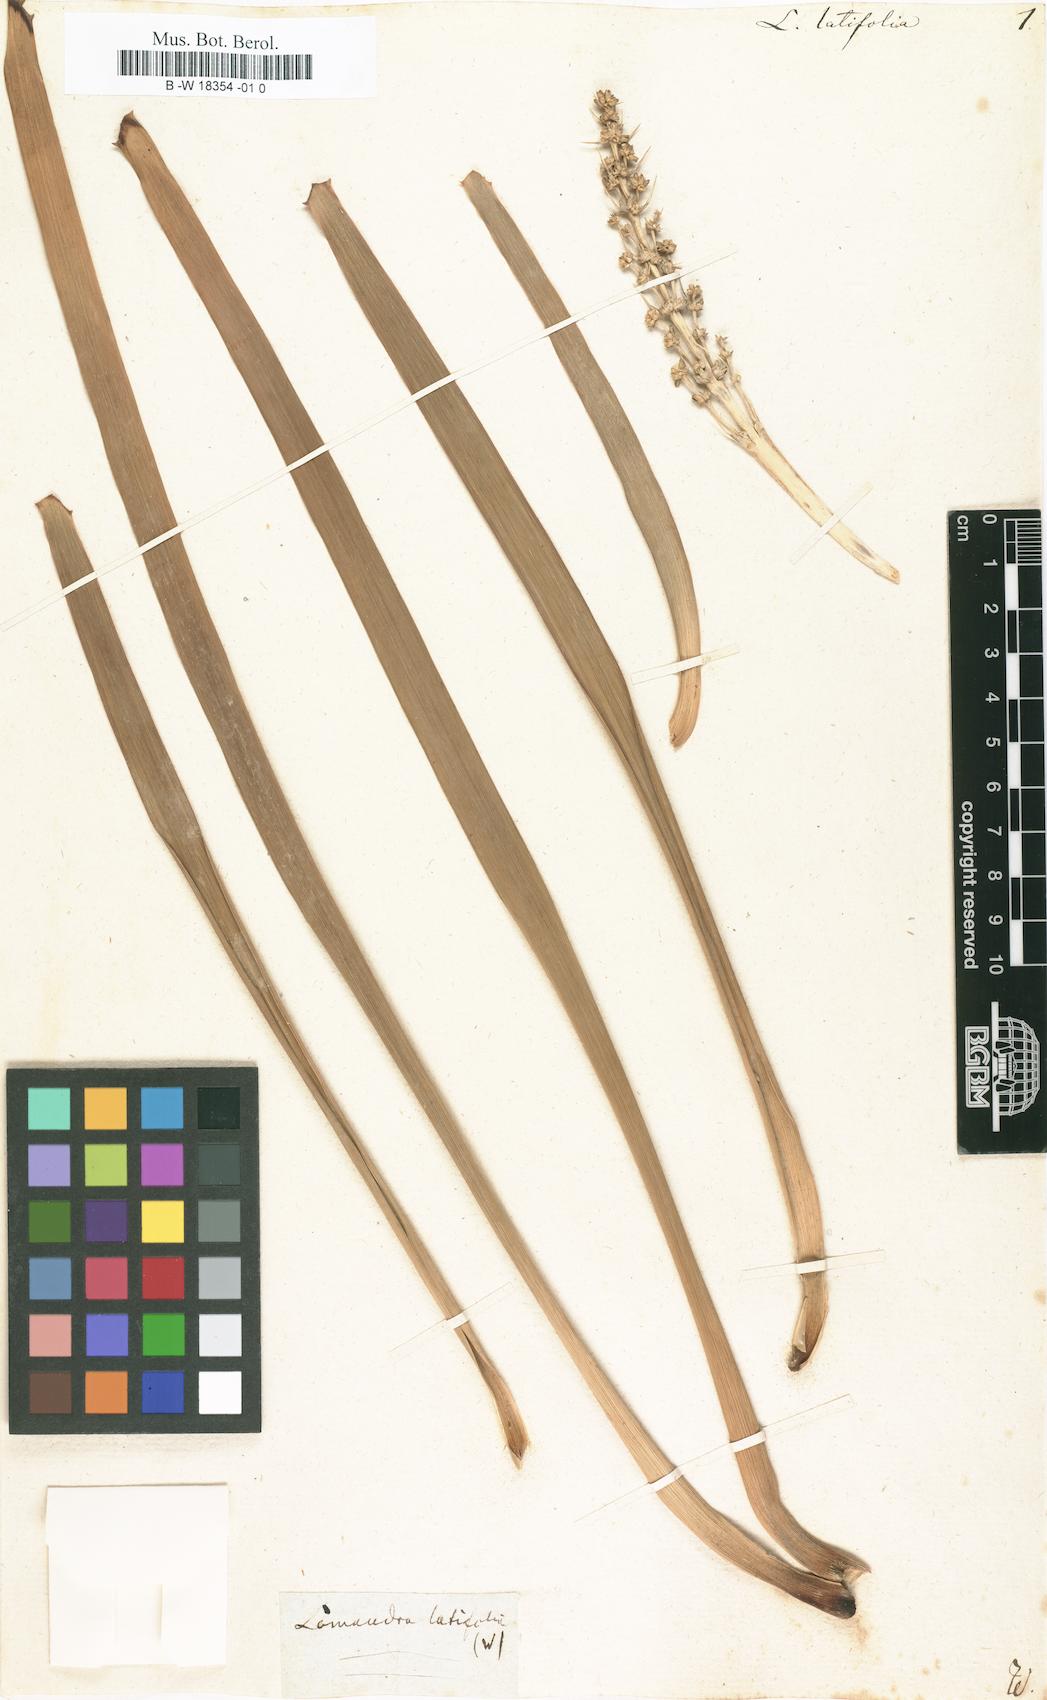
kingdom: Plantae
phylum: Tracheophyta
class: Liliopsida
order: Asparagales
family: Asparagaceae
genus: Lomandra
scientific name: Lomandra latifolia
